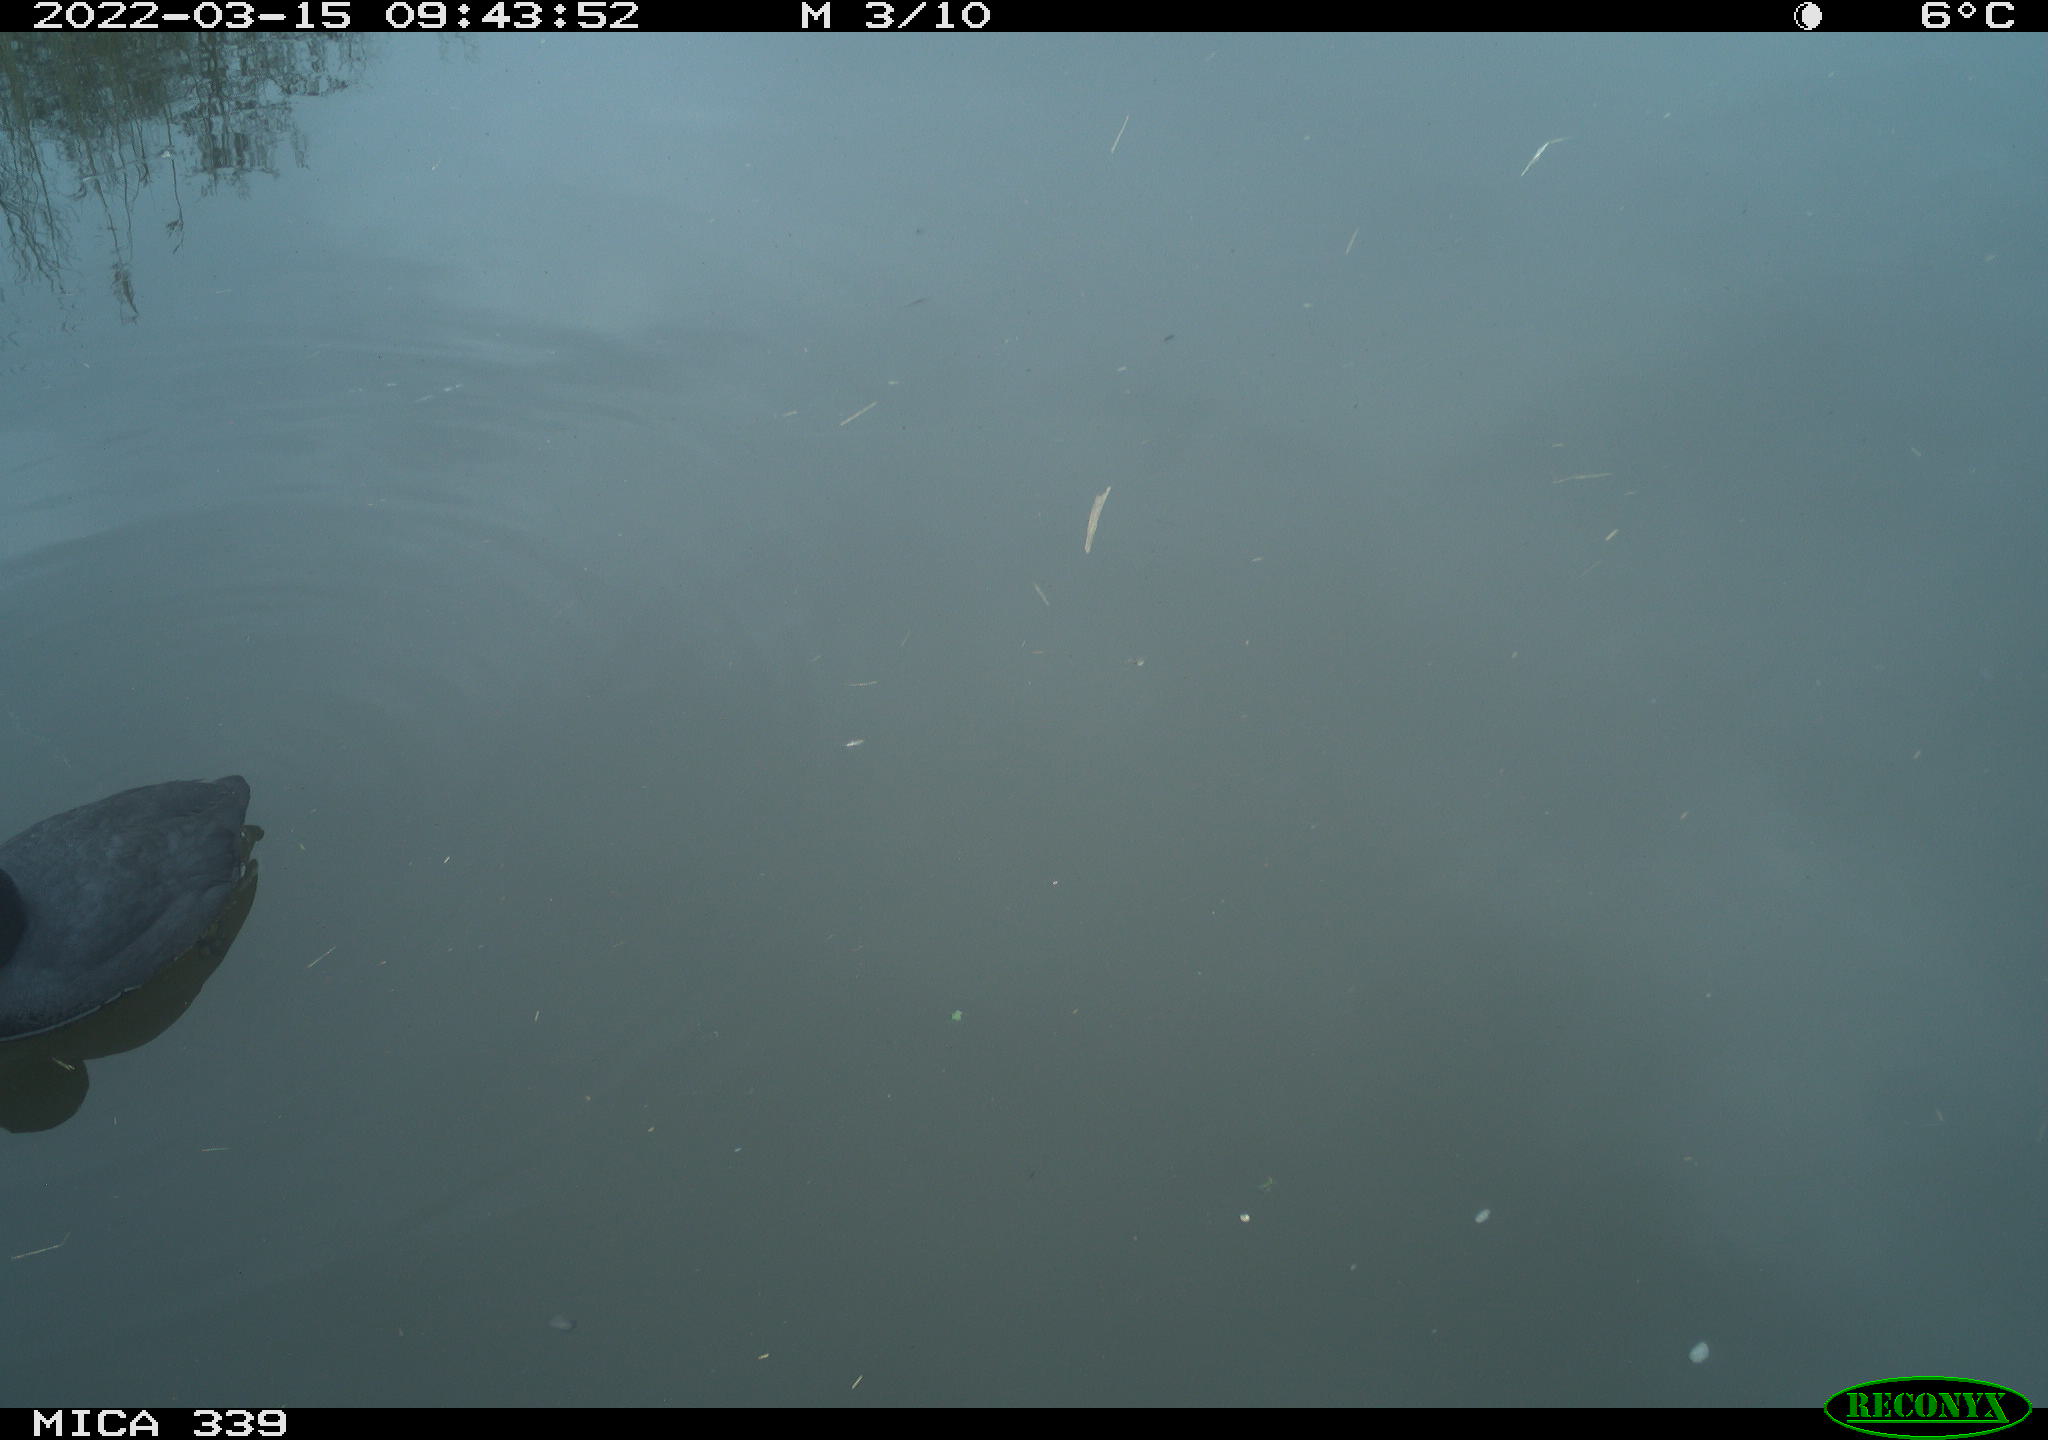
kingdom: Animalia
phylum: Chordata
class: Aves
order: Gruiformes
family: Rallidae
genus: Fulica
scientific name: Fulica atra
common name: Eurasian coot
